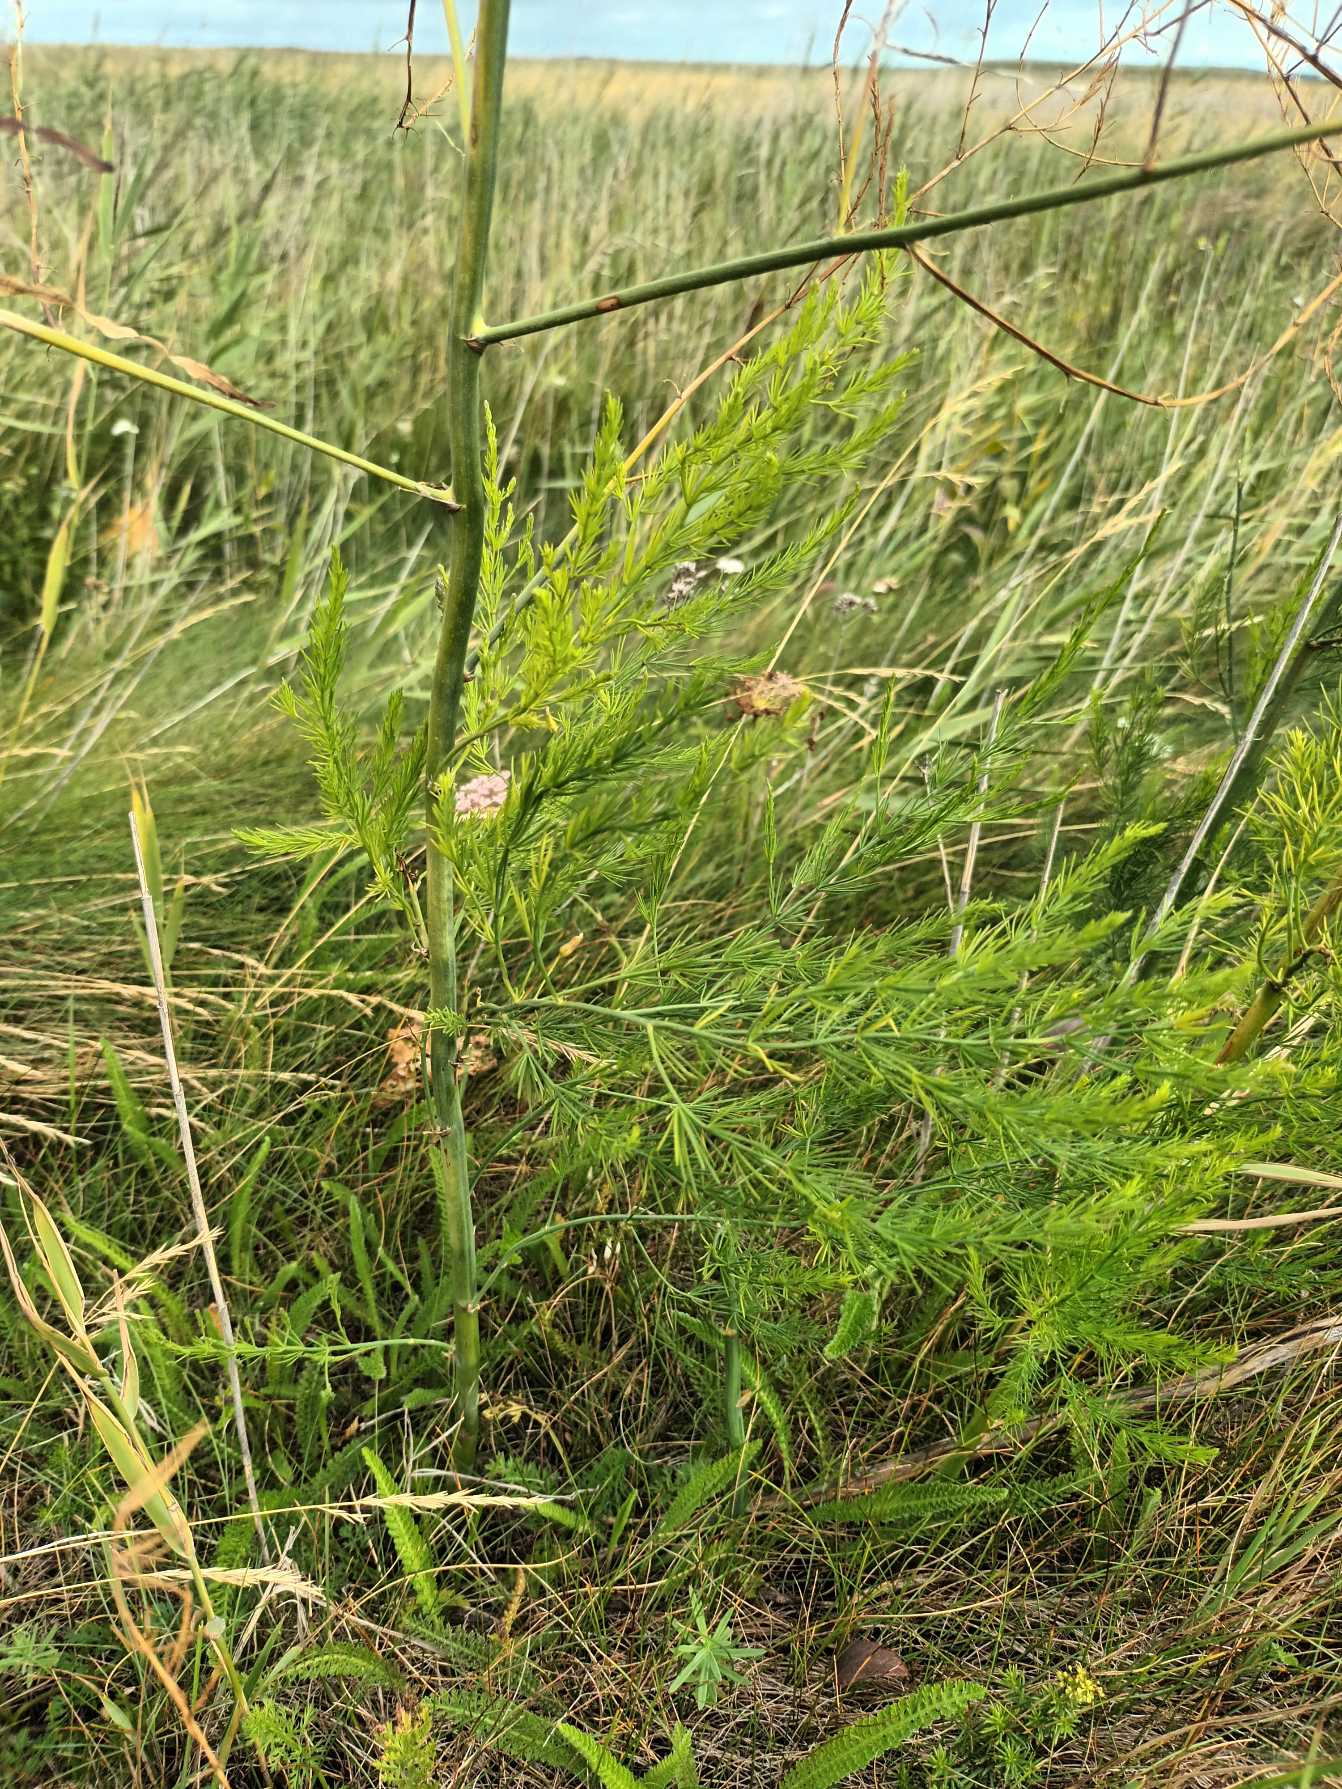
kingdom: Plantae
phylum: Tracheophyta
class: Liliopsida
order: Asparagales
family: Asparagaceae
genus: Asparagus
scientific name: Asparagus officinalis
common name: Asparges
